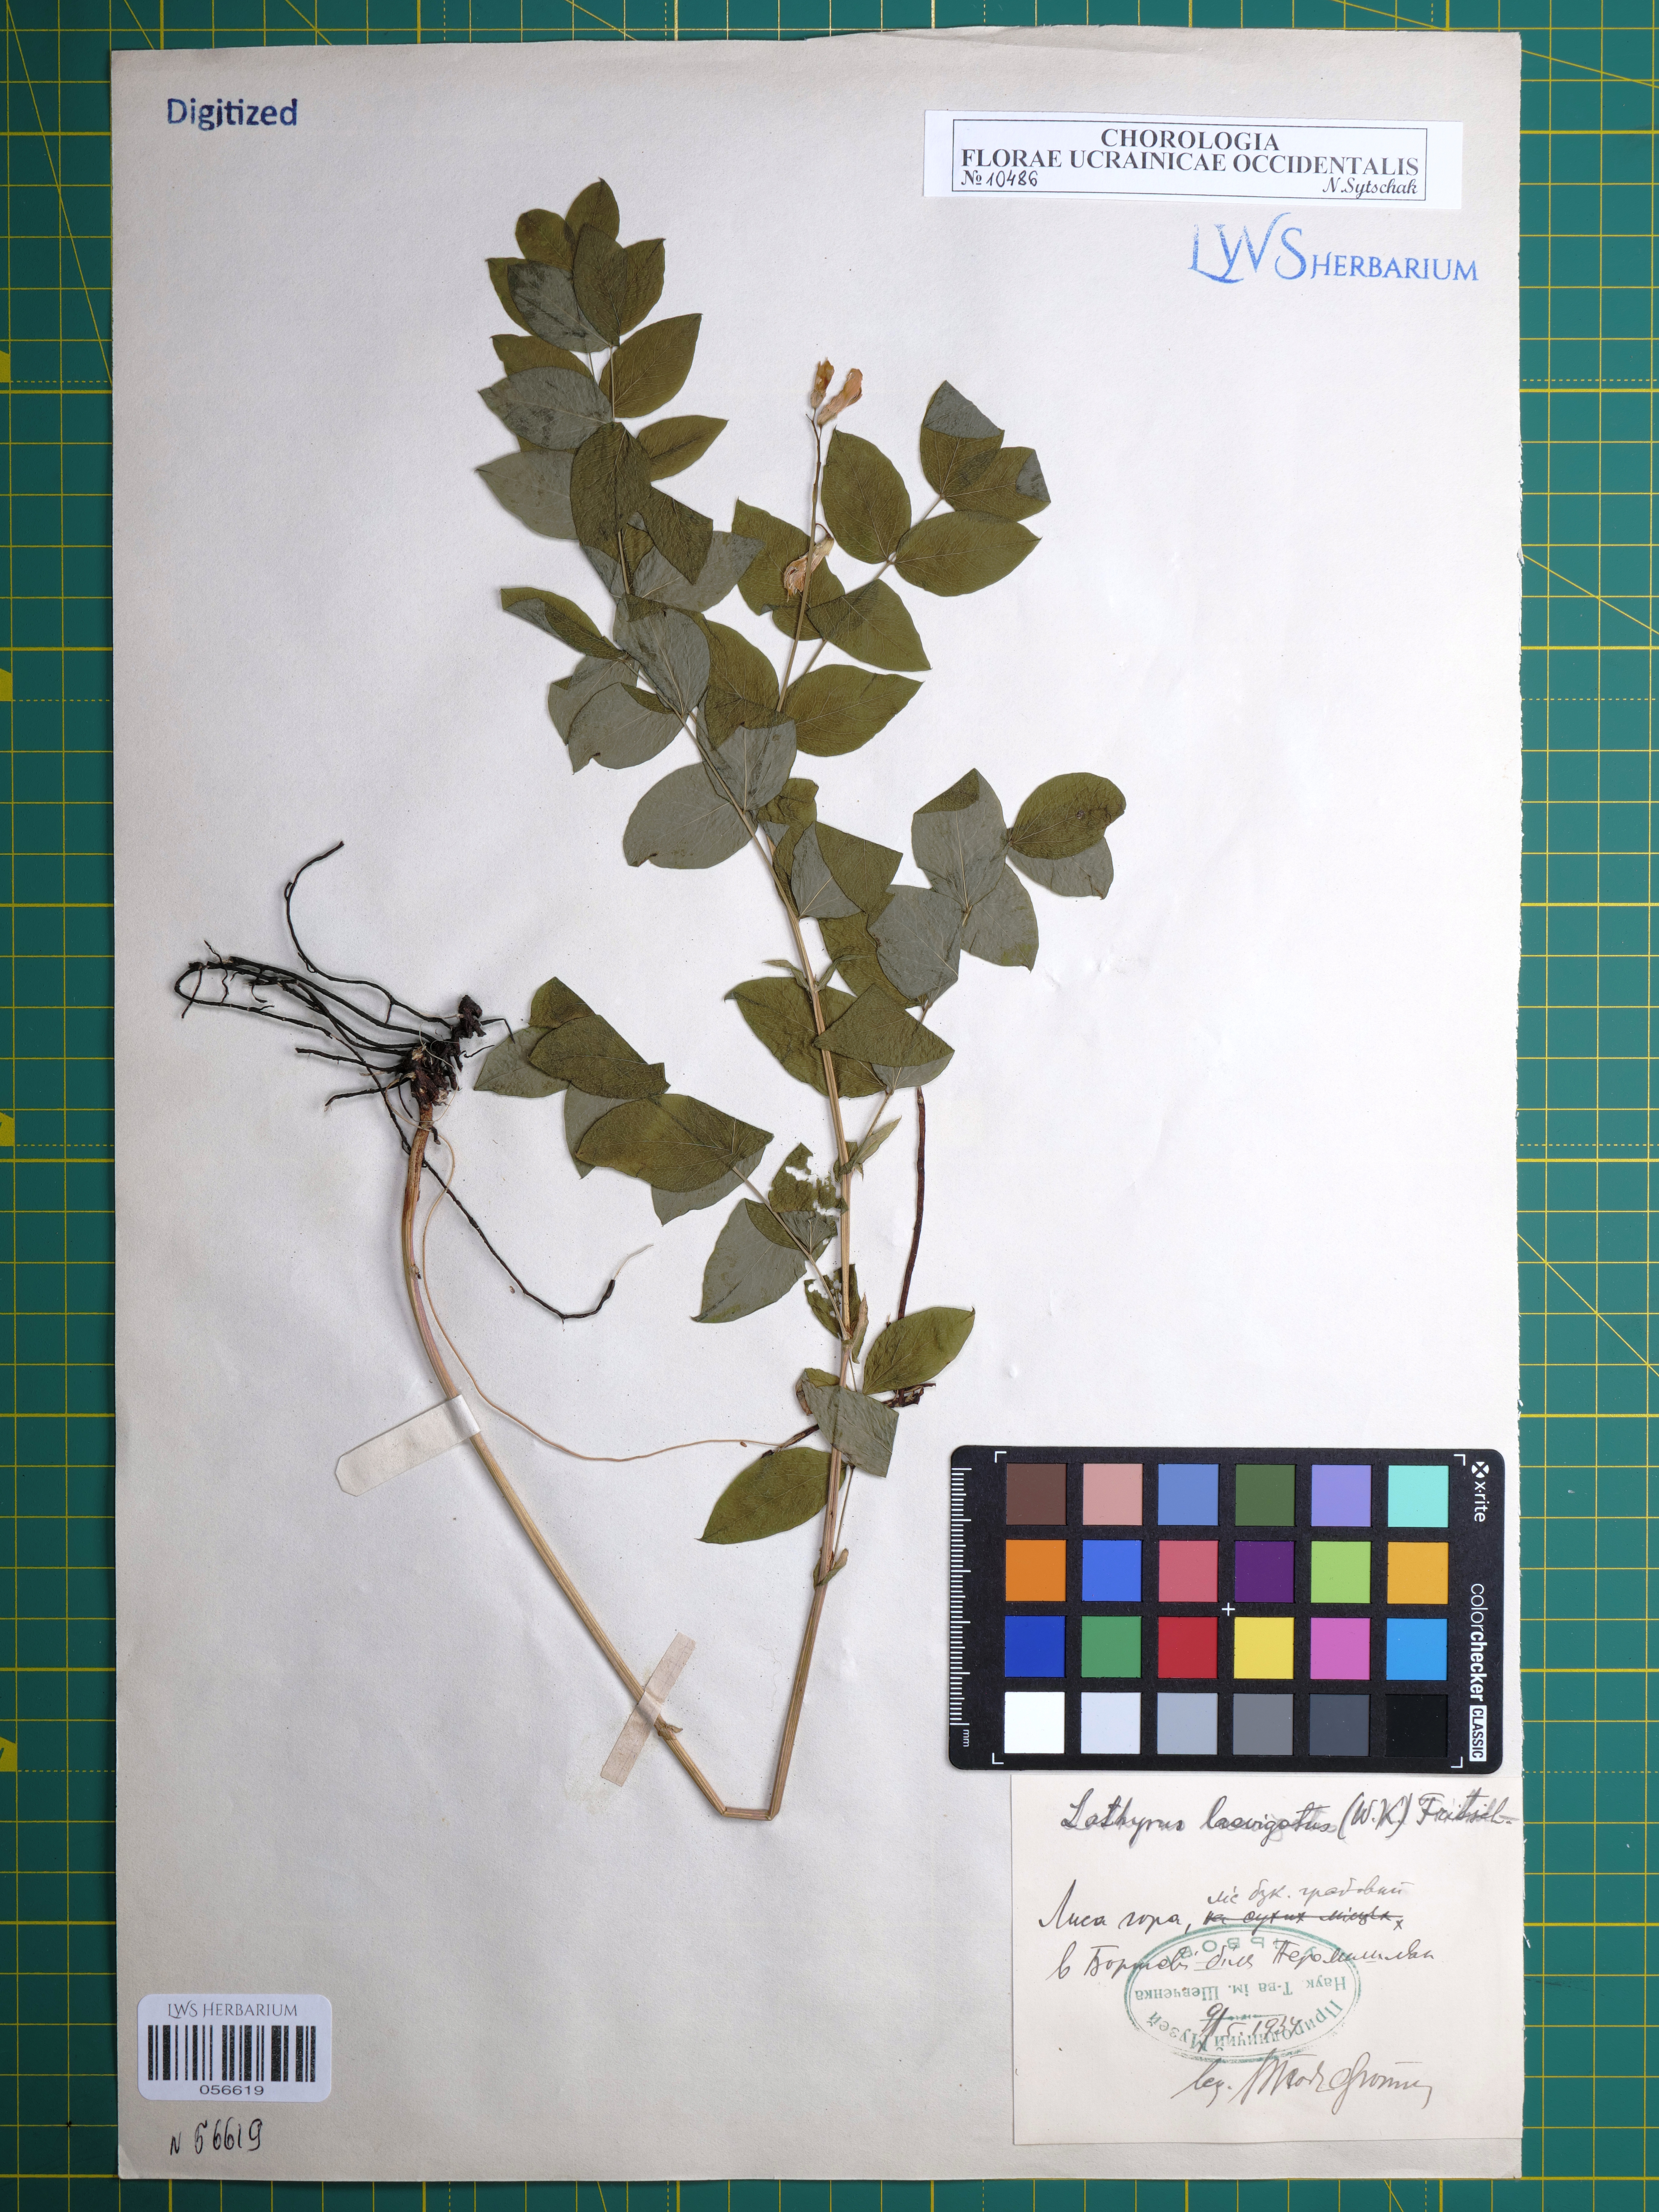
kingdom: Plantae
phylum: Tracheophyta
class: Magnoliopsida
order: Fabales
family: Fabaceae
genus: Lathyrus
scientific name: Lathyrus laevigatus
